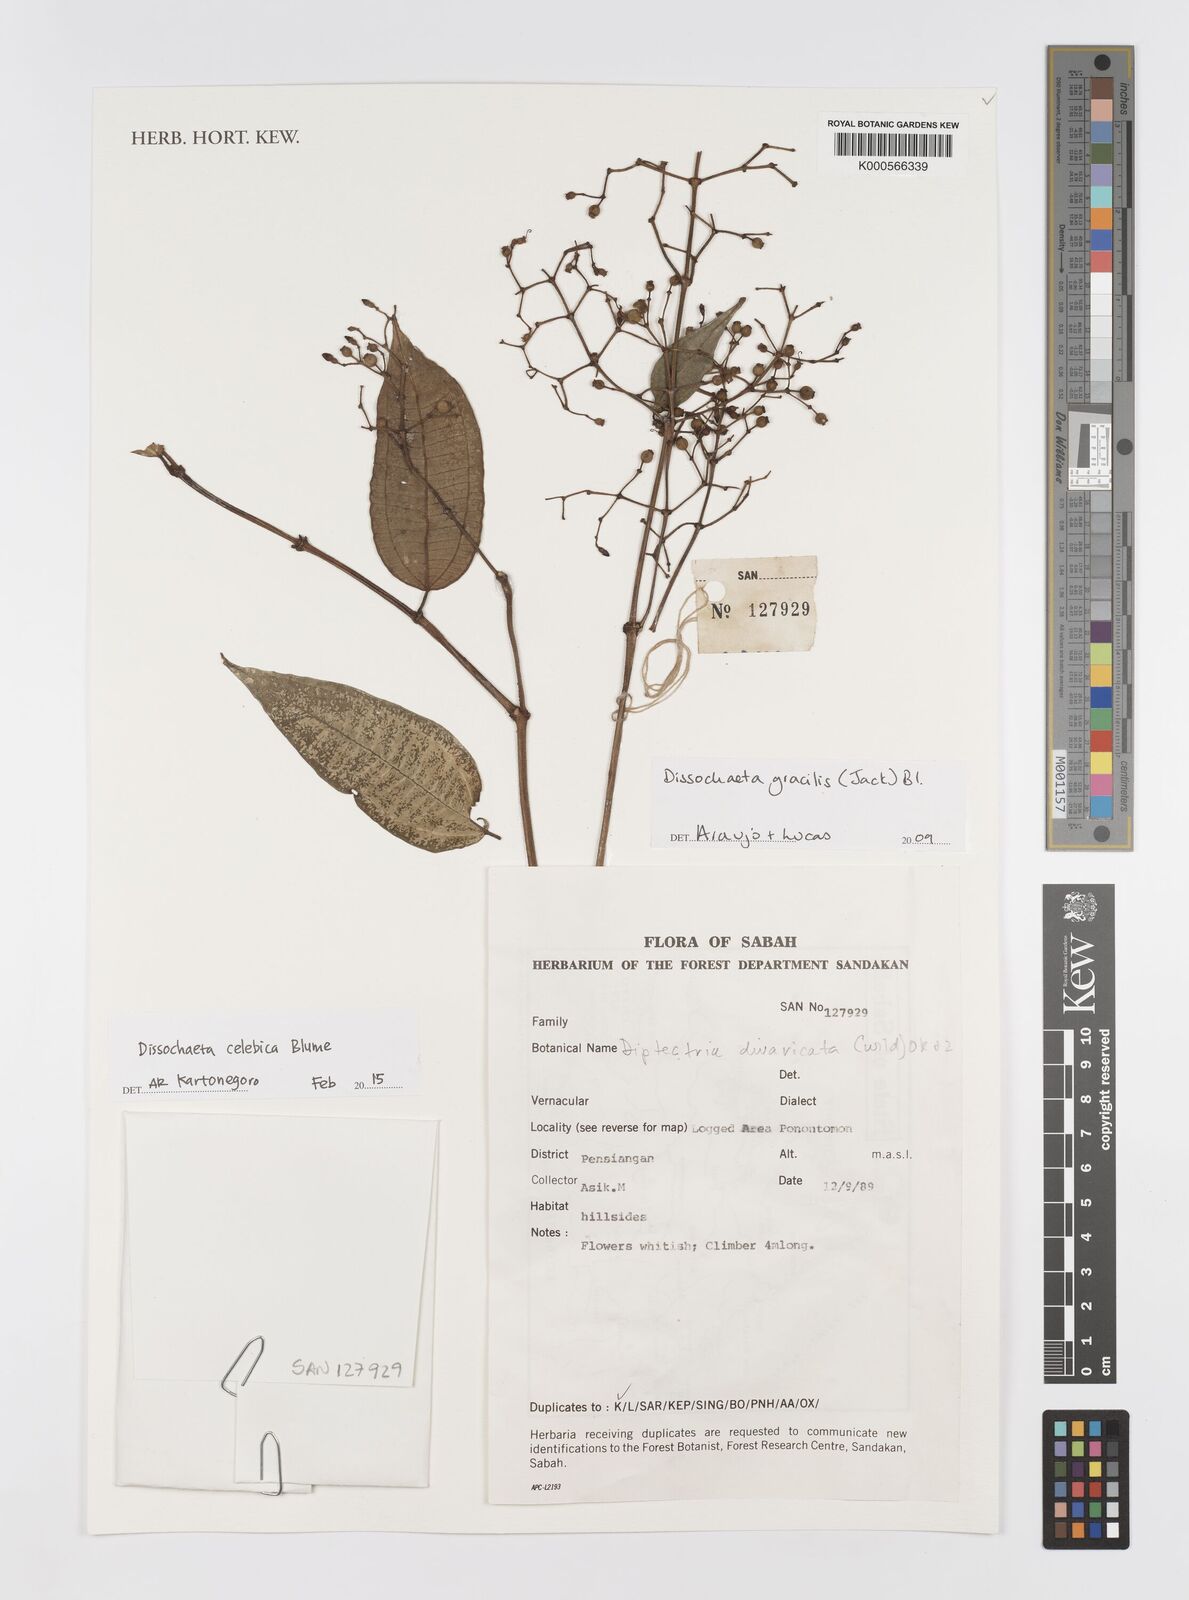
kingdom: Plantae
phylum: Tracheophyta
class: Magnoliopsida
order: Myrtales
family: Melastomataceae
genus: Dissochaeta
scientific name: Dissochaeta celebica
